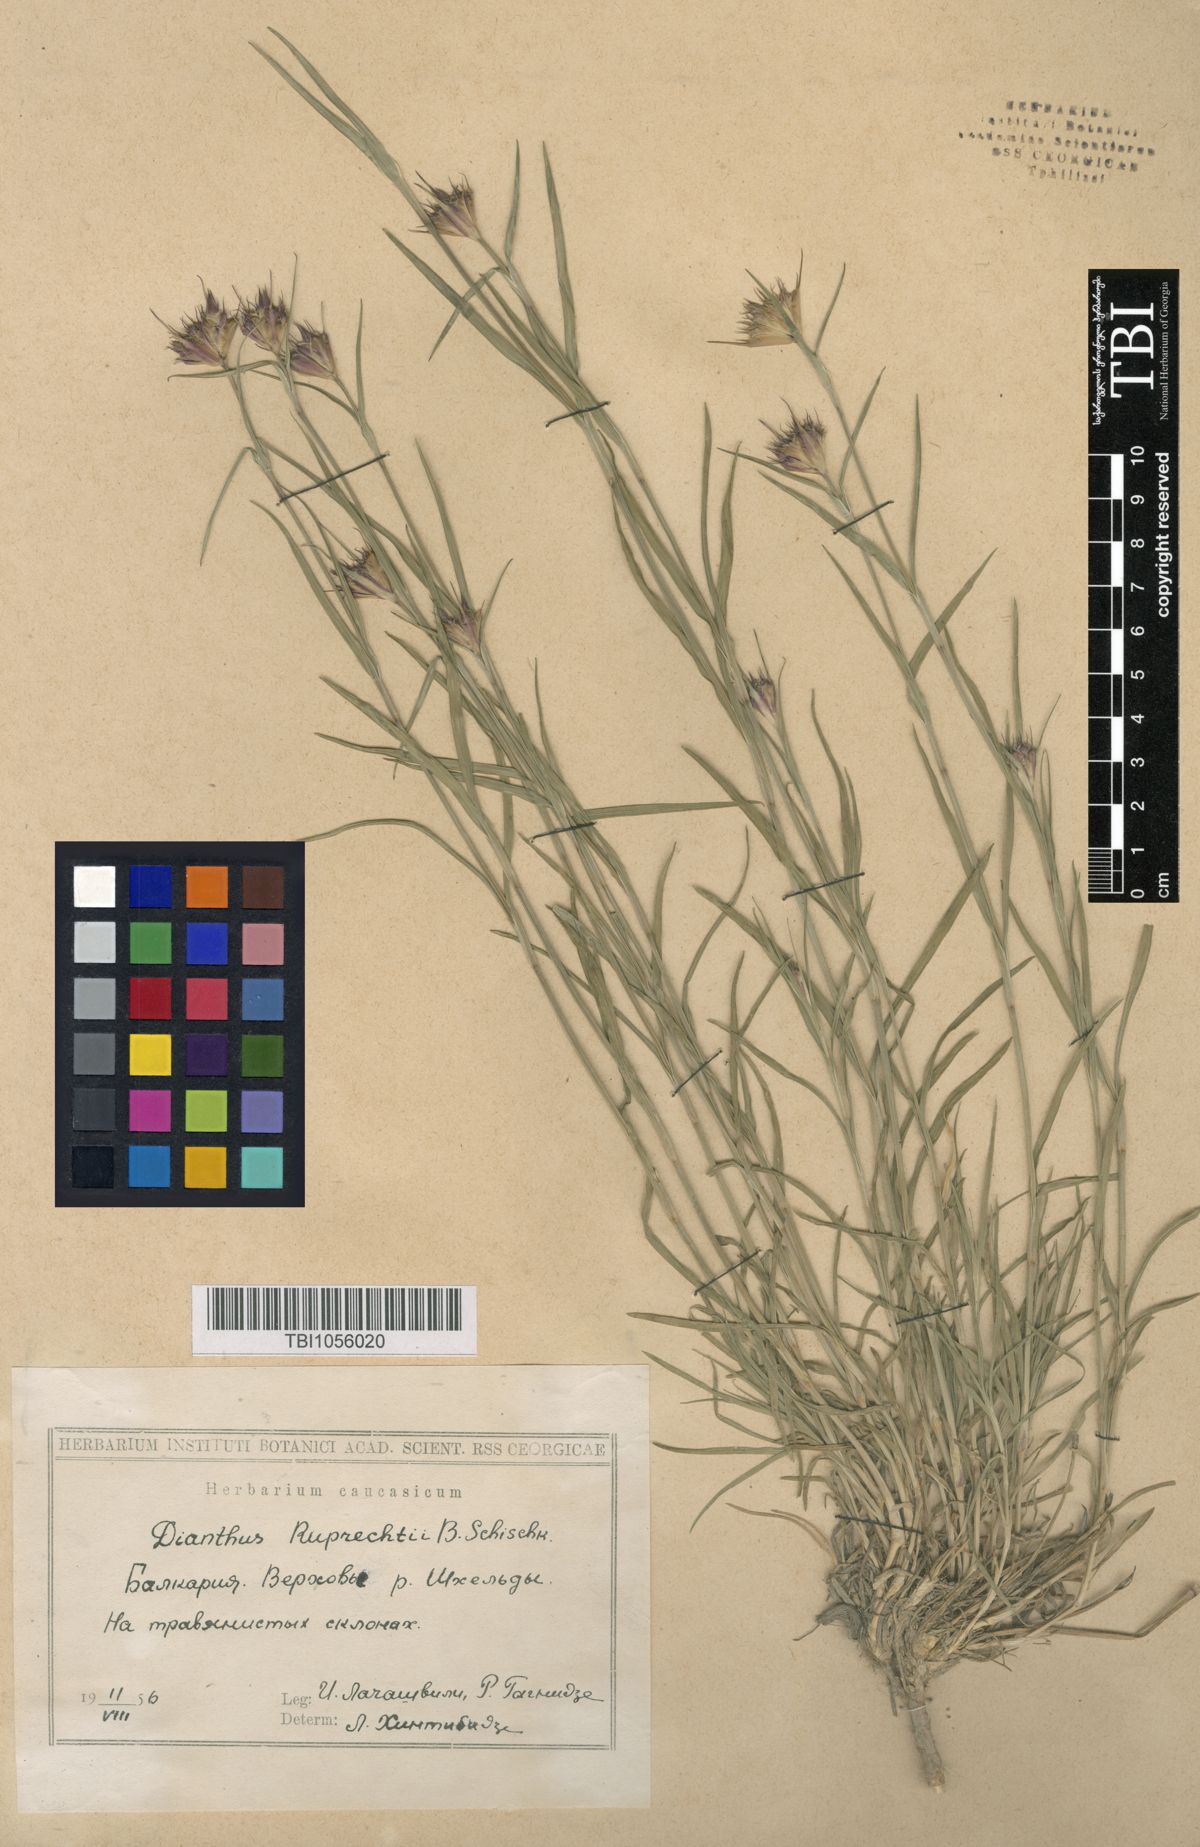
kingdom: Plantae
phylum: Tracheophyta
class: Magnoliopsida
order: Caryophyllales
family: Caryophyllaceae
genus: Dianthus
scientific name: Dianthus ruprechtii
